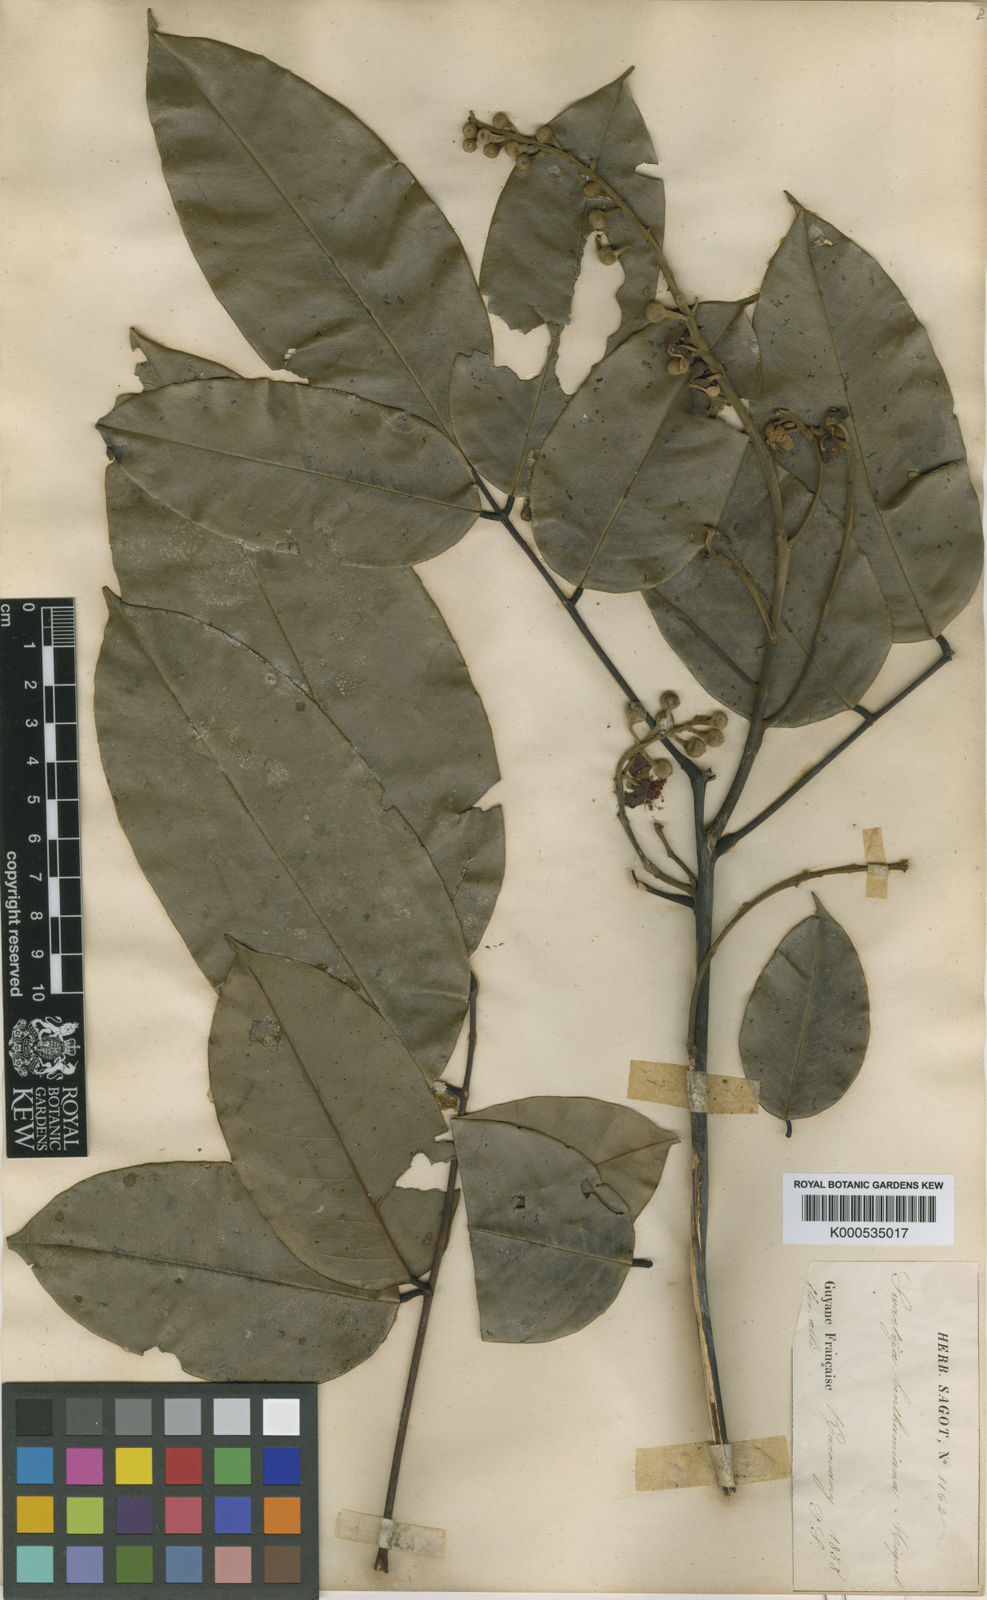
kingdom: Plantae
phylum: Tracheophyta
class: Magnoliopsida
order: Fabales
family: Fabaceae
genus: Swartzia
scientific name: Swartzia benthamiana
